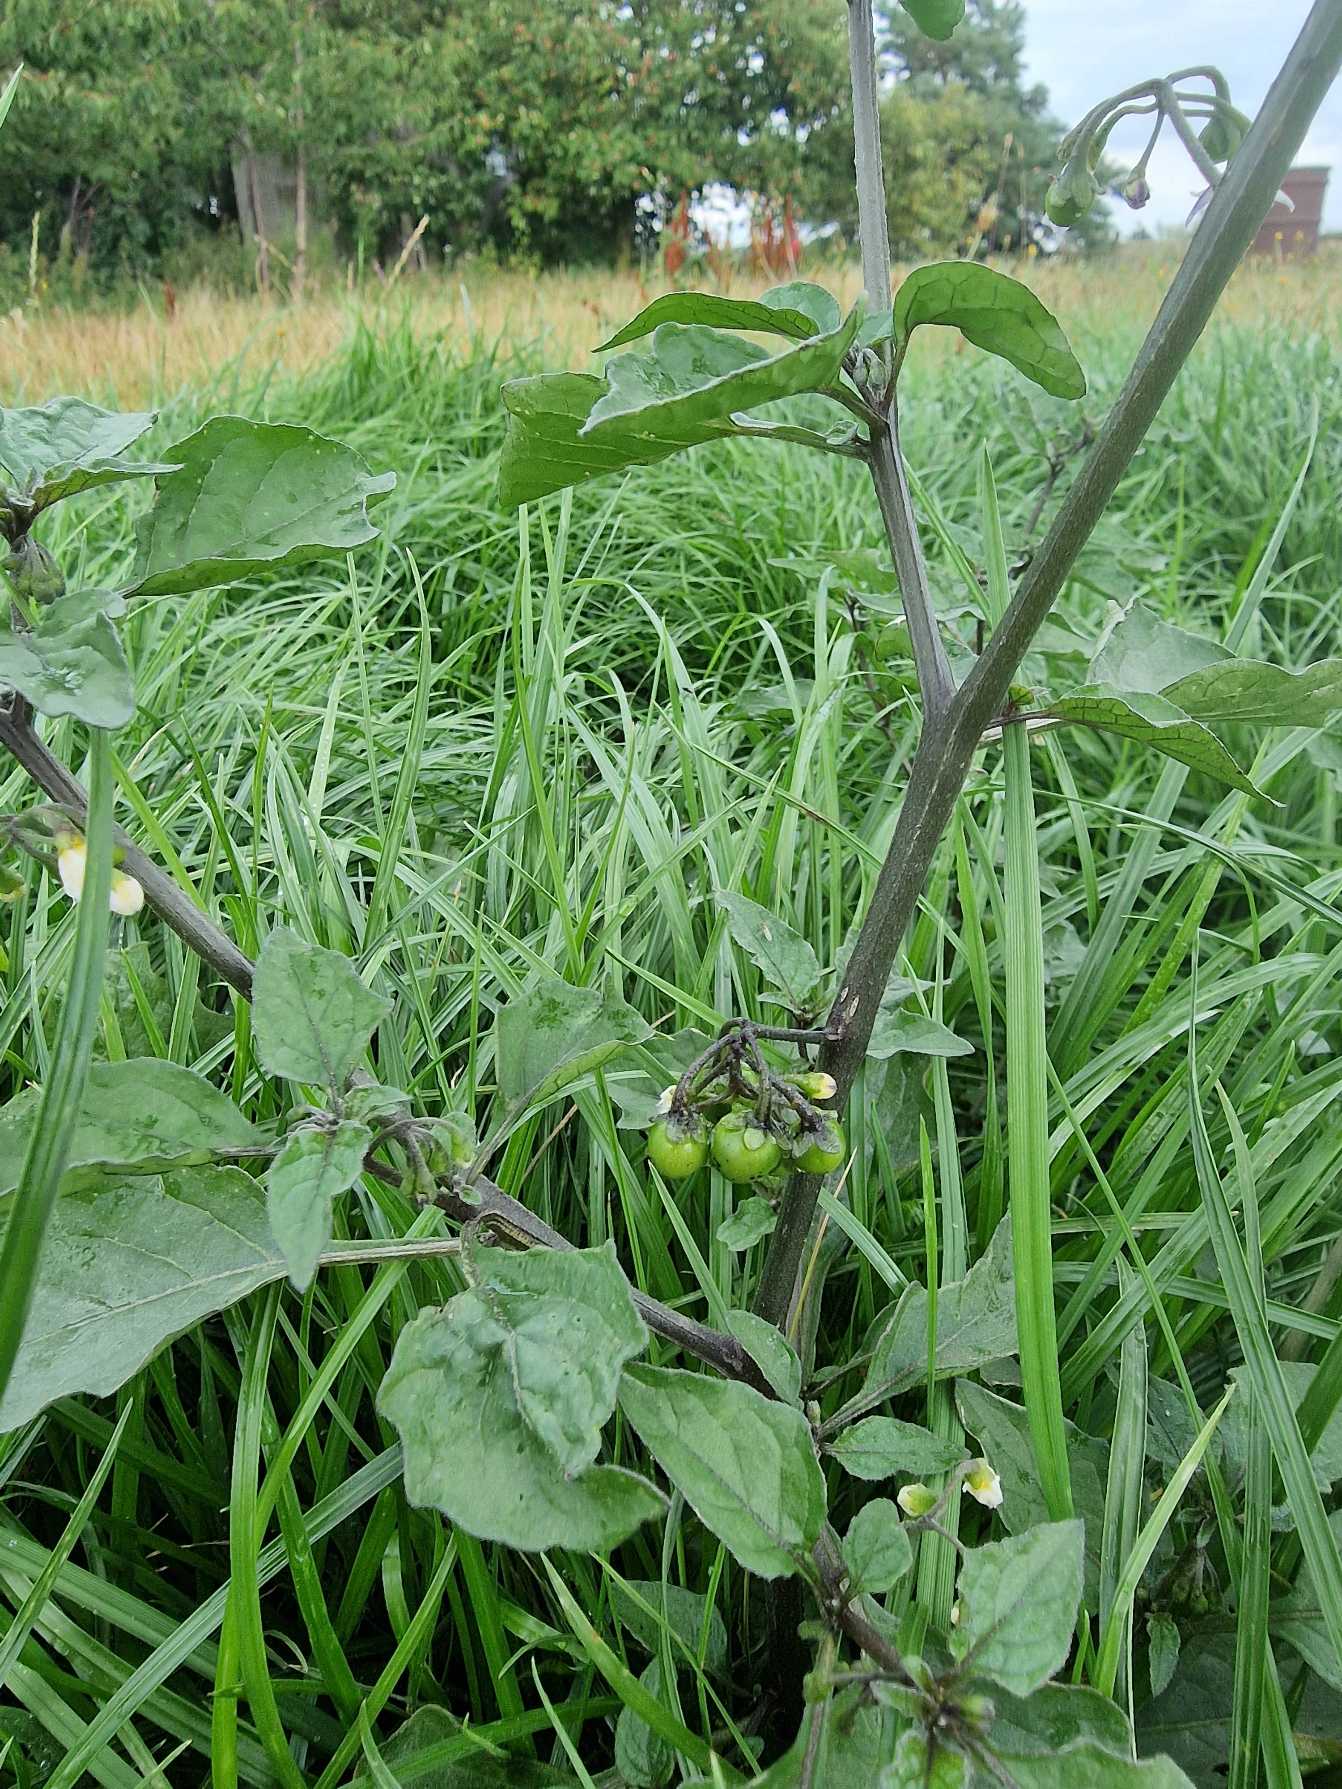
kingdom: Plantae
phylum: Tracheophyta
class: Magnoliopsida
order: Solanales
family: Solanaceae
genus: Solanum
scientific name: Solanum nigrum
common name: Sort natskygge
